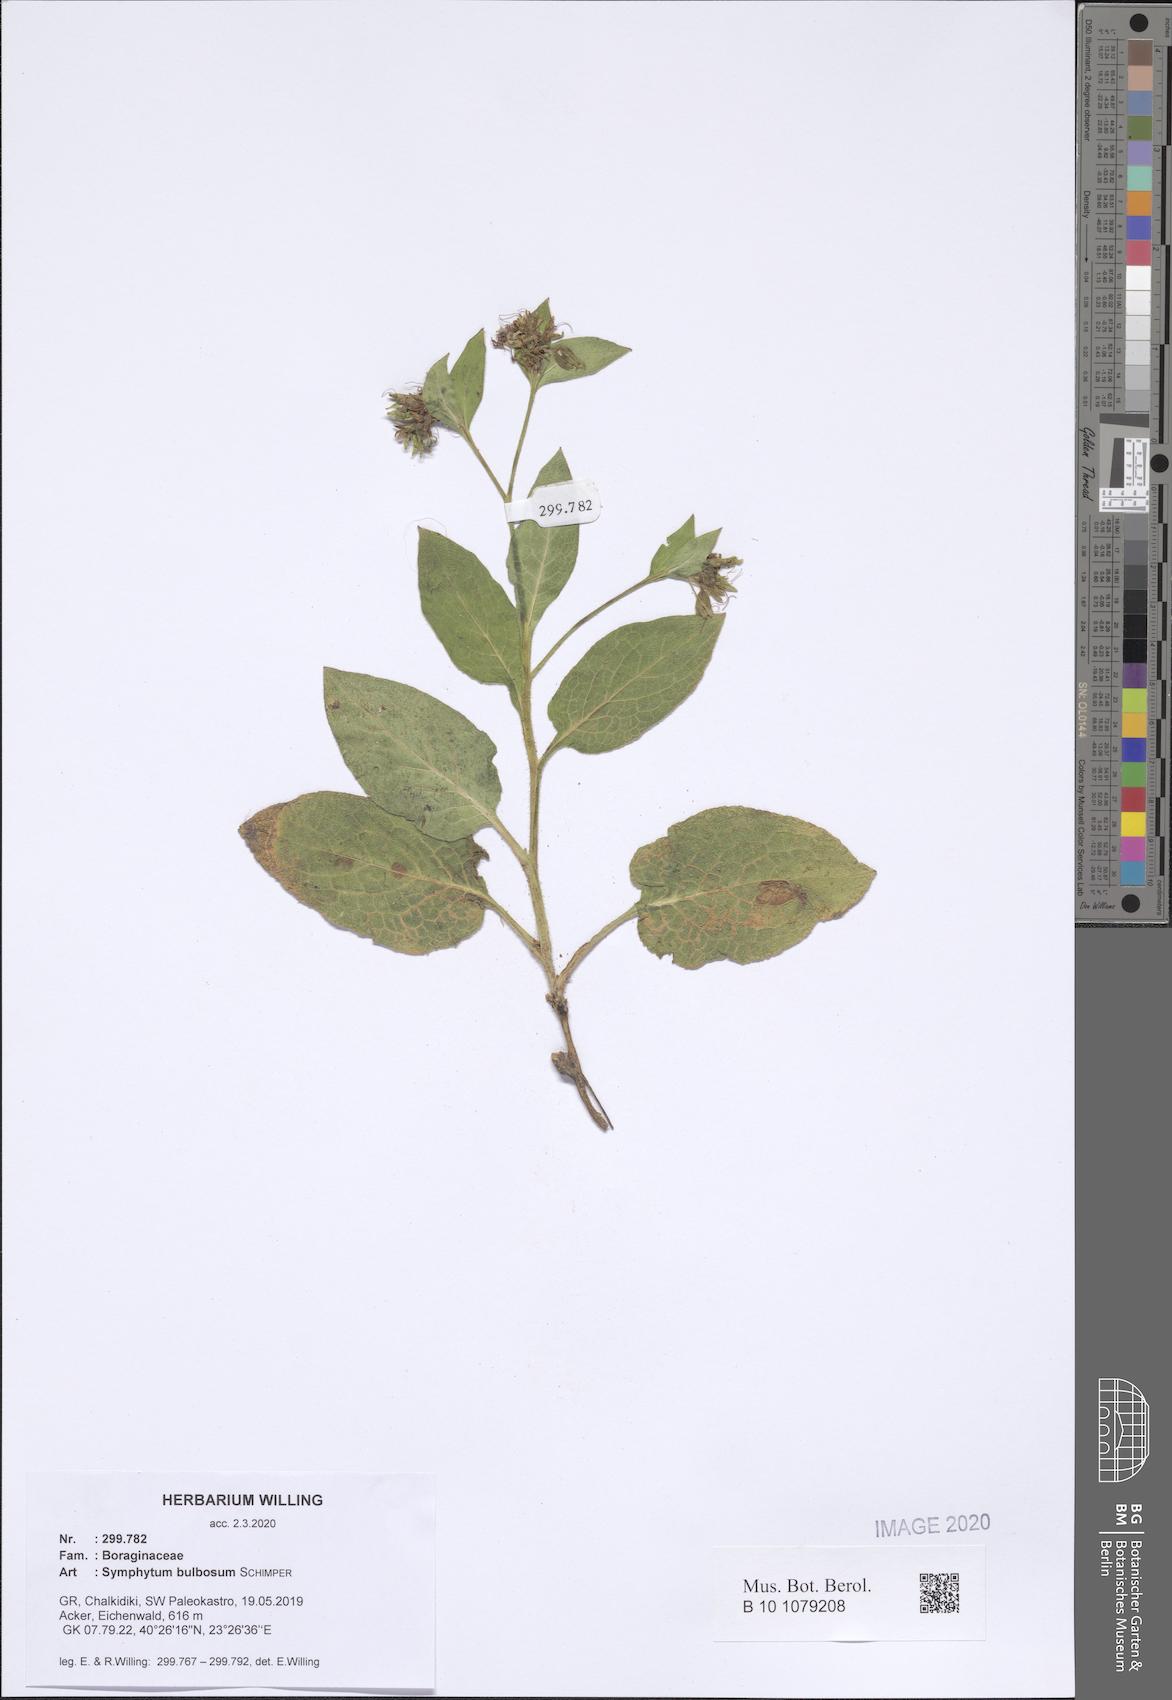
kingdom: Plantae
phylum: Tracheophyta
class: Magnoliopsida
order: Boraginales
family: Boraginaceae
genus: Symphytum
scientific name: Symphytum bulbosum
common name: Bulbous comfrey
